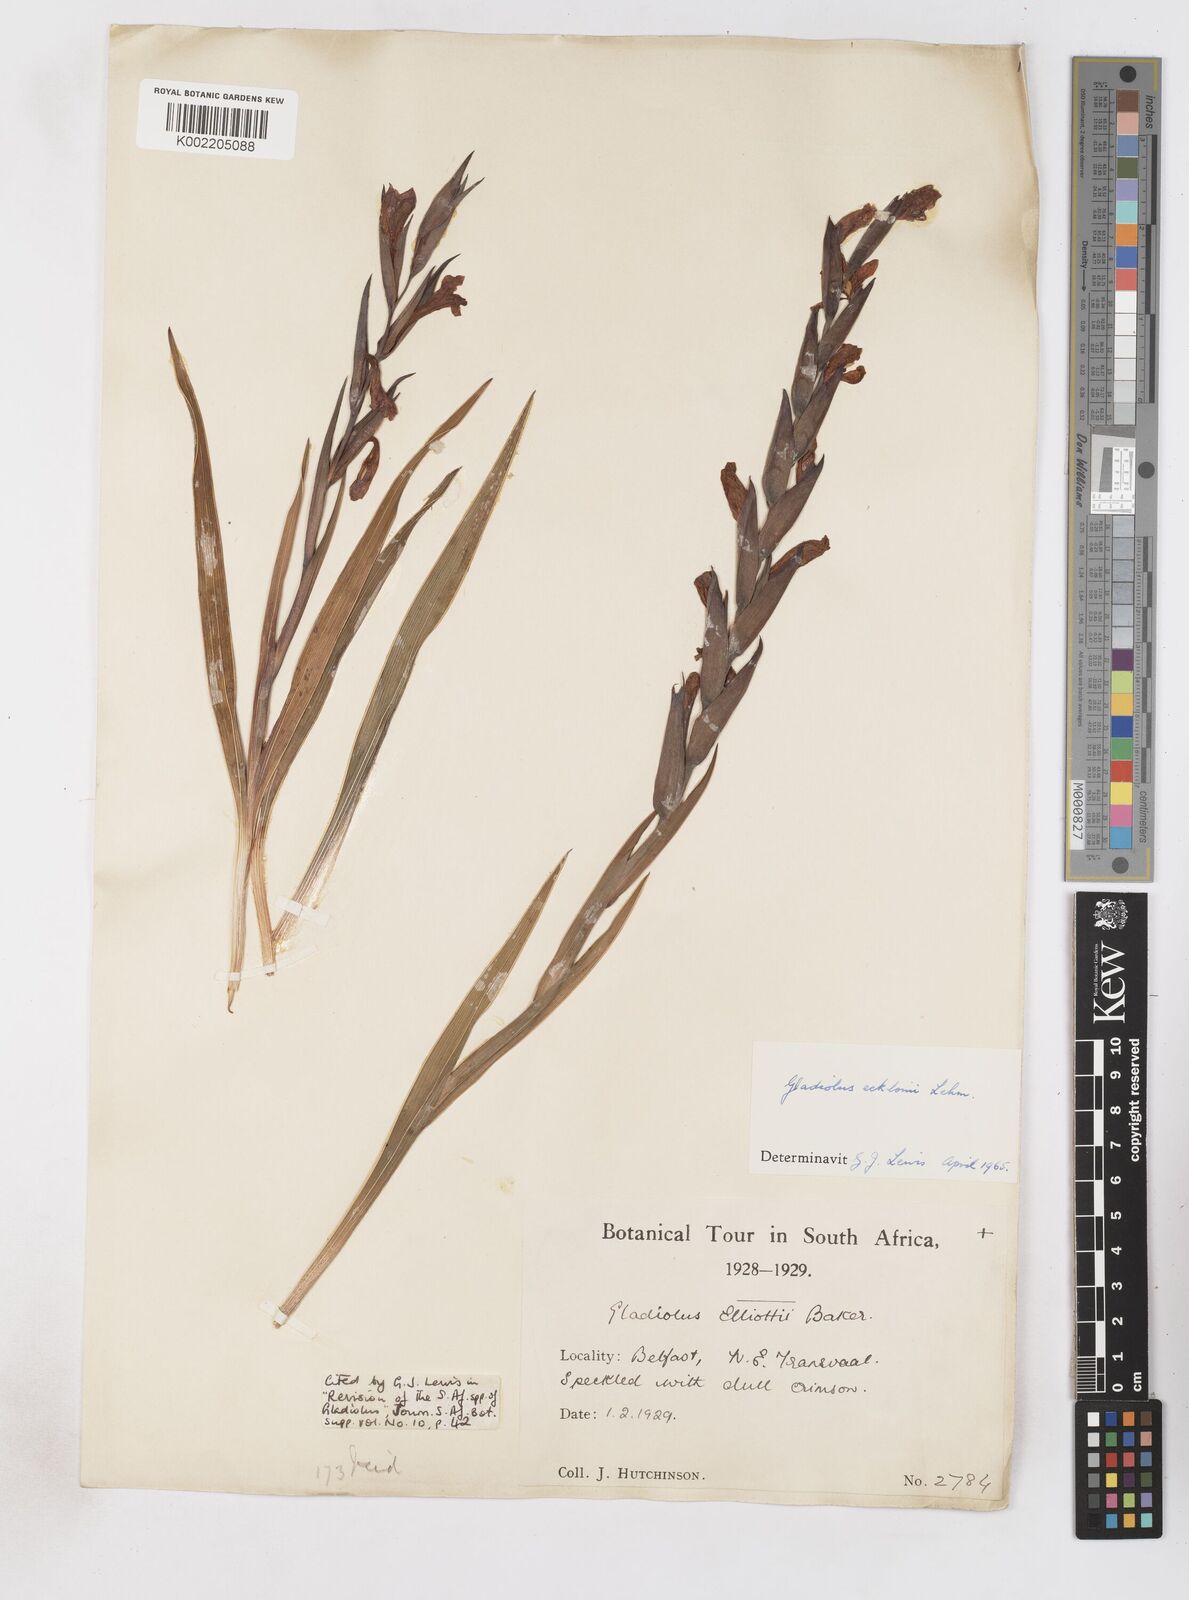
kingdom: Plantae
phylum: Tracheophyta
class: Liliopsida
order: Asparagales
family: Iridaceae
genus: Gladiolus
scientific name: Gladiolus ecklonii
